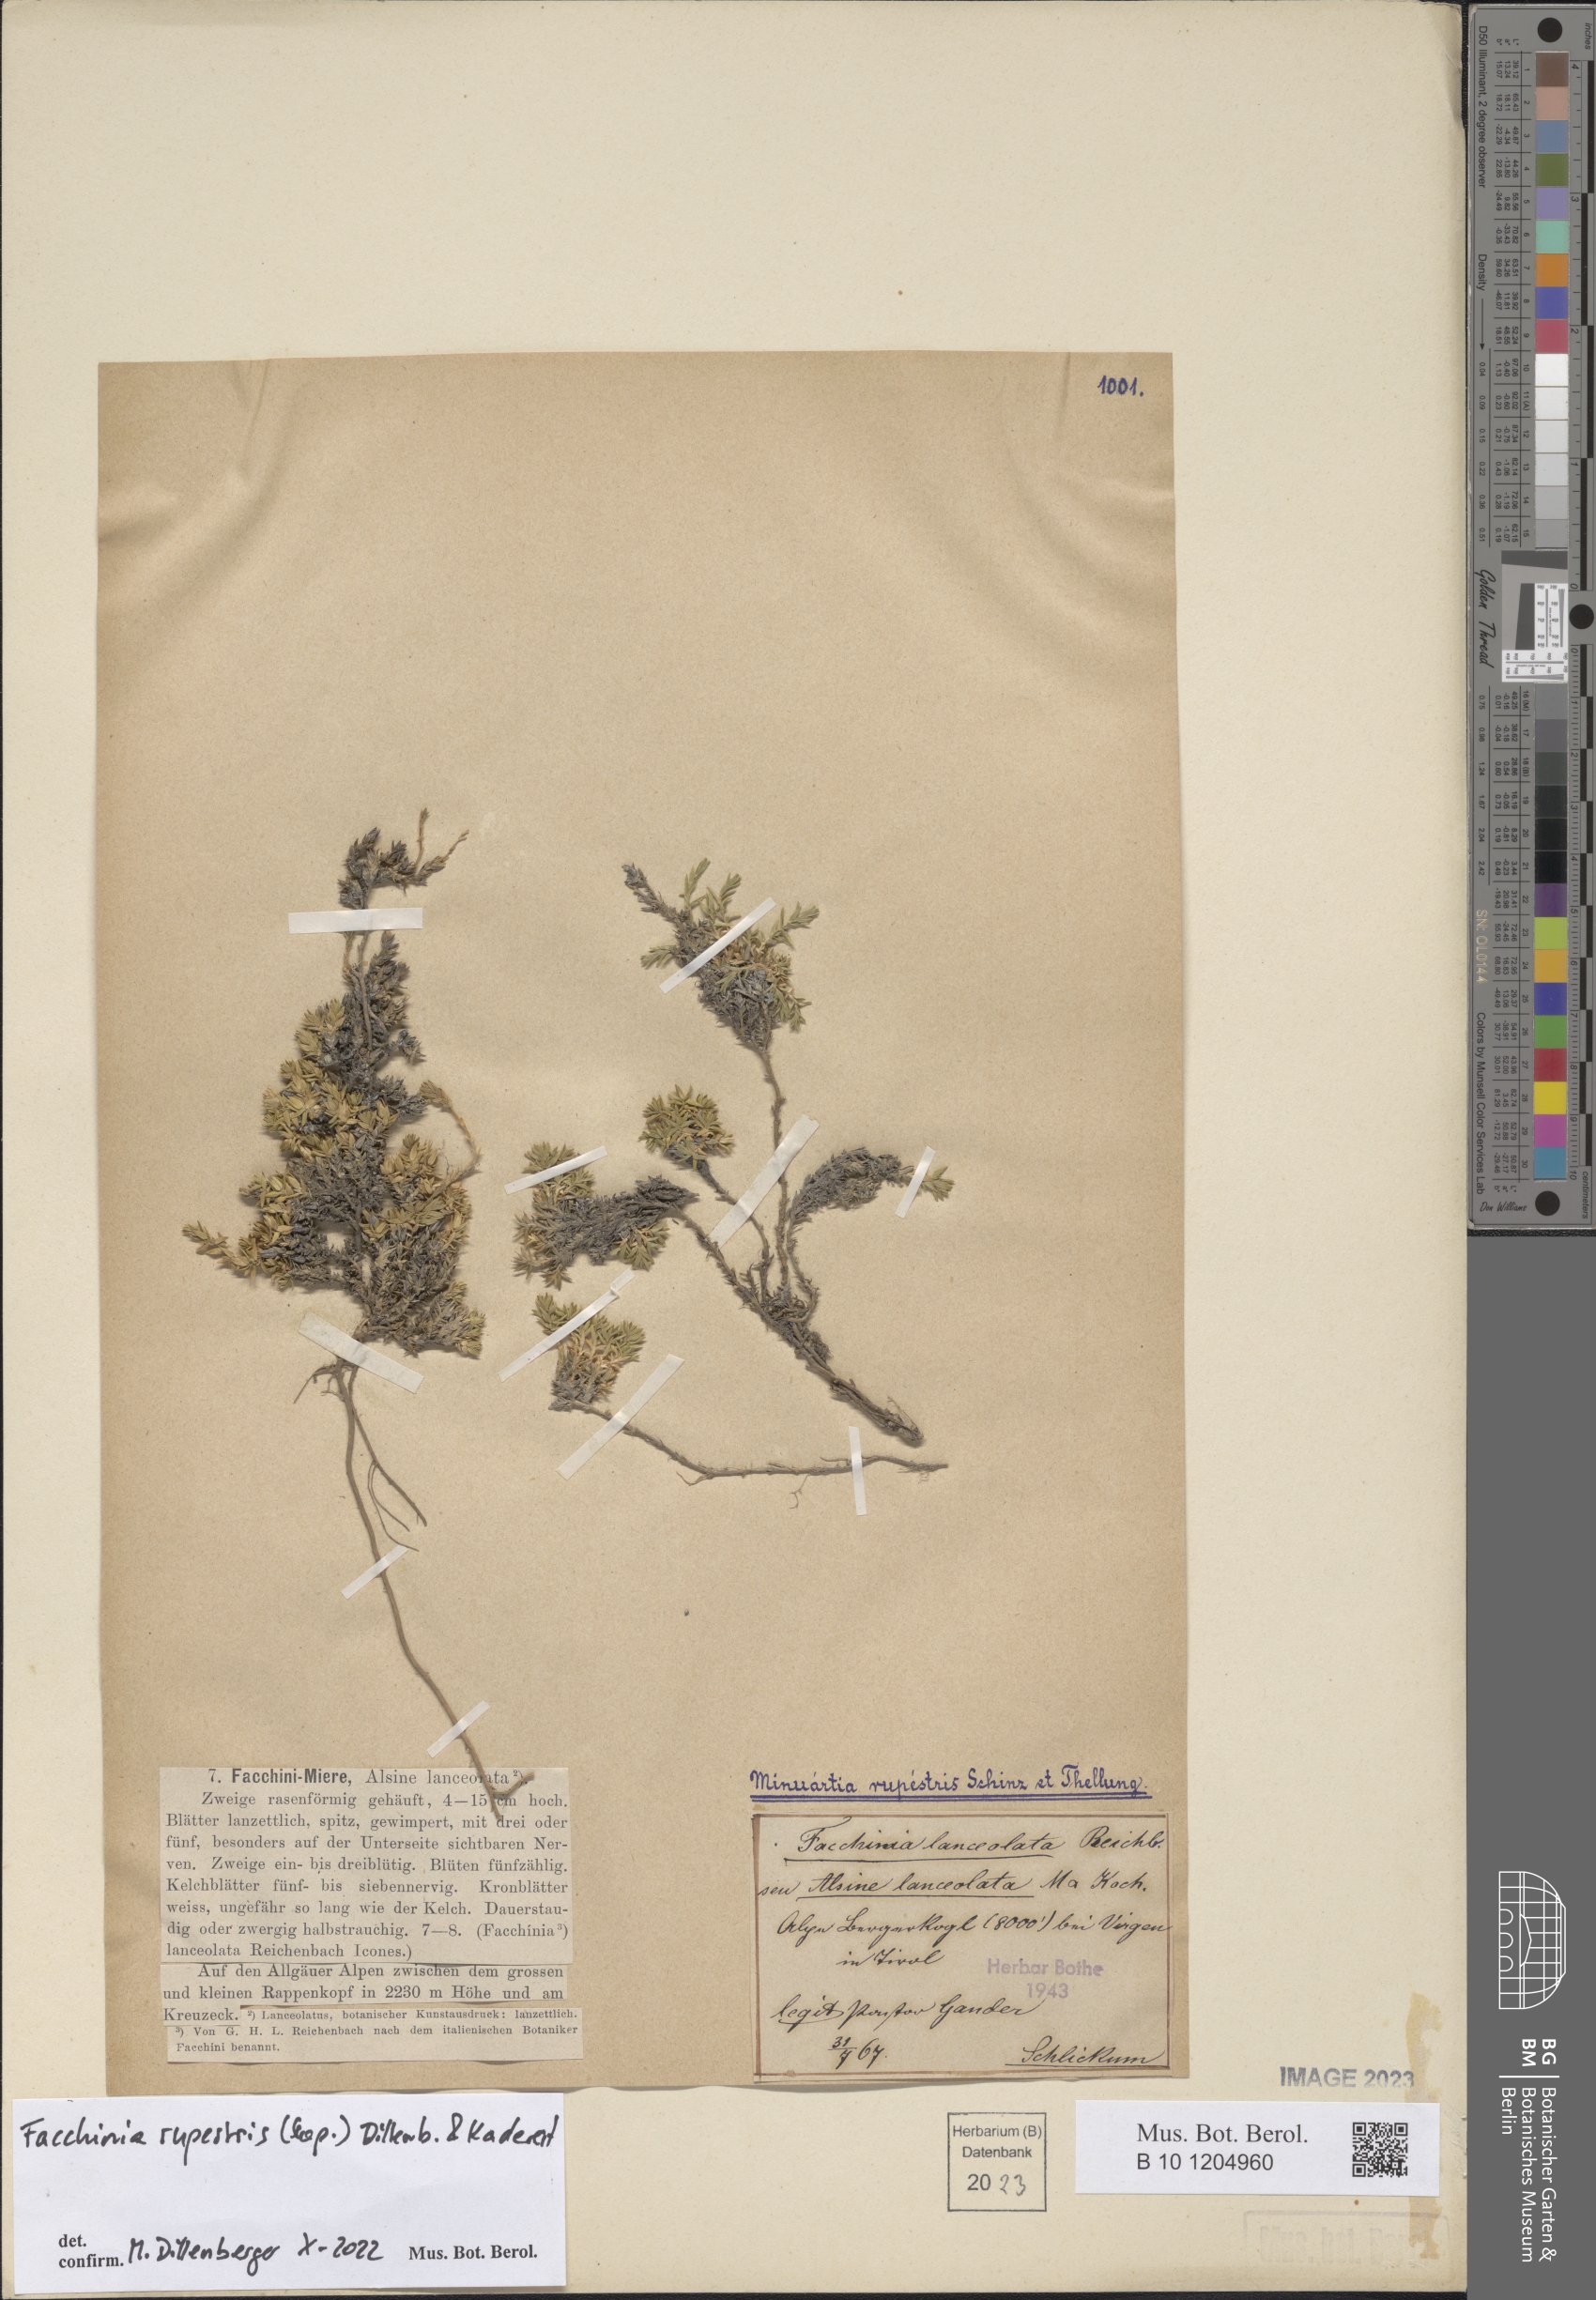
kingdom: Plantae
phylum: Tracheophyta
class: Magnoliopsida
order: Caryophyllales
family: Caryophyllaceae
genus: Facchinia
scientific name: Facchinia rupestris
